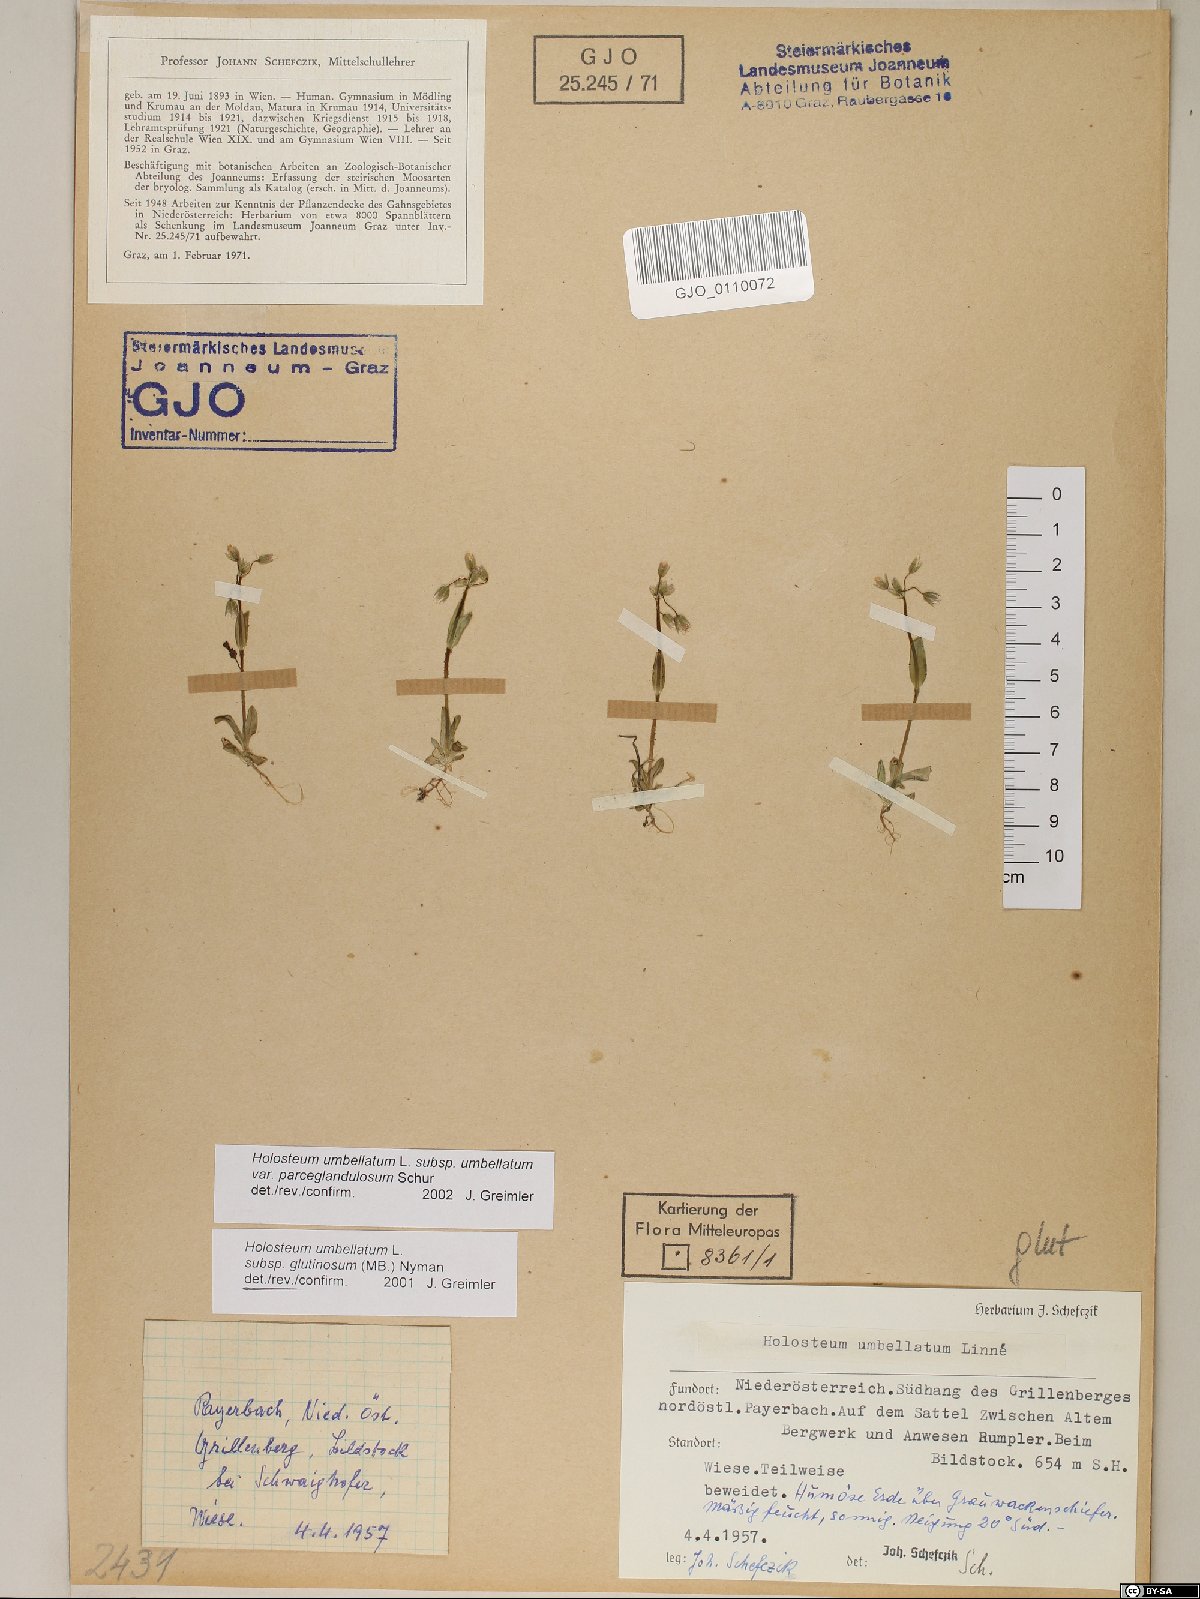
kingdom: Plantae
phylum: Tracheophyta
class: Magnoliopsida
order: Caryophyllales
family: Caryophyllaceae
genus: Holosteum
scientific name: Holosteum umbellatum
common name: Jagged chickweed
